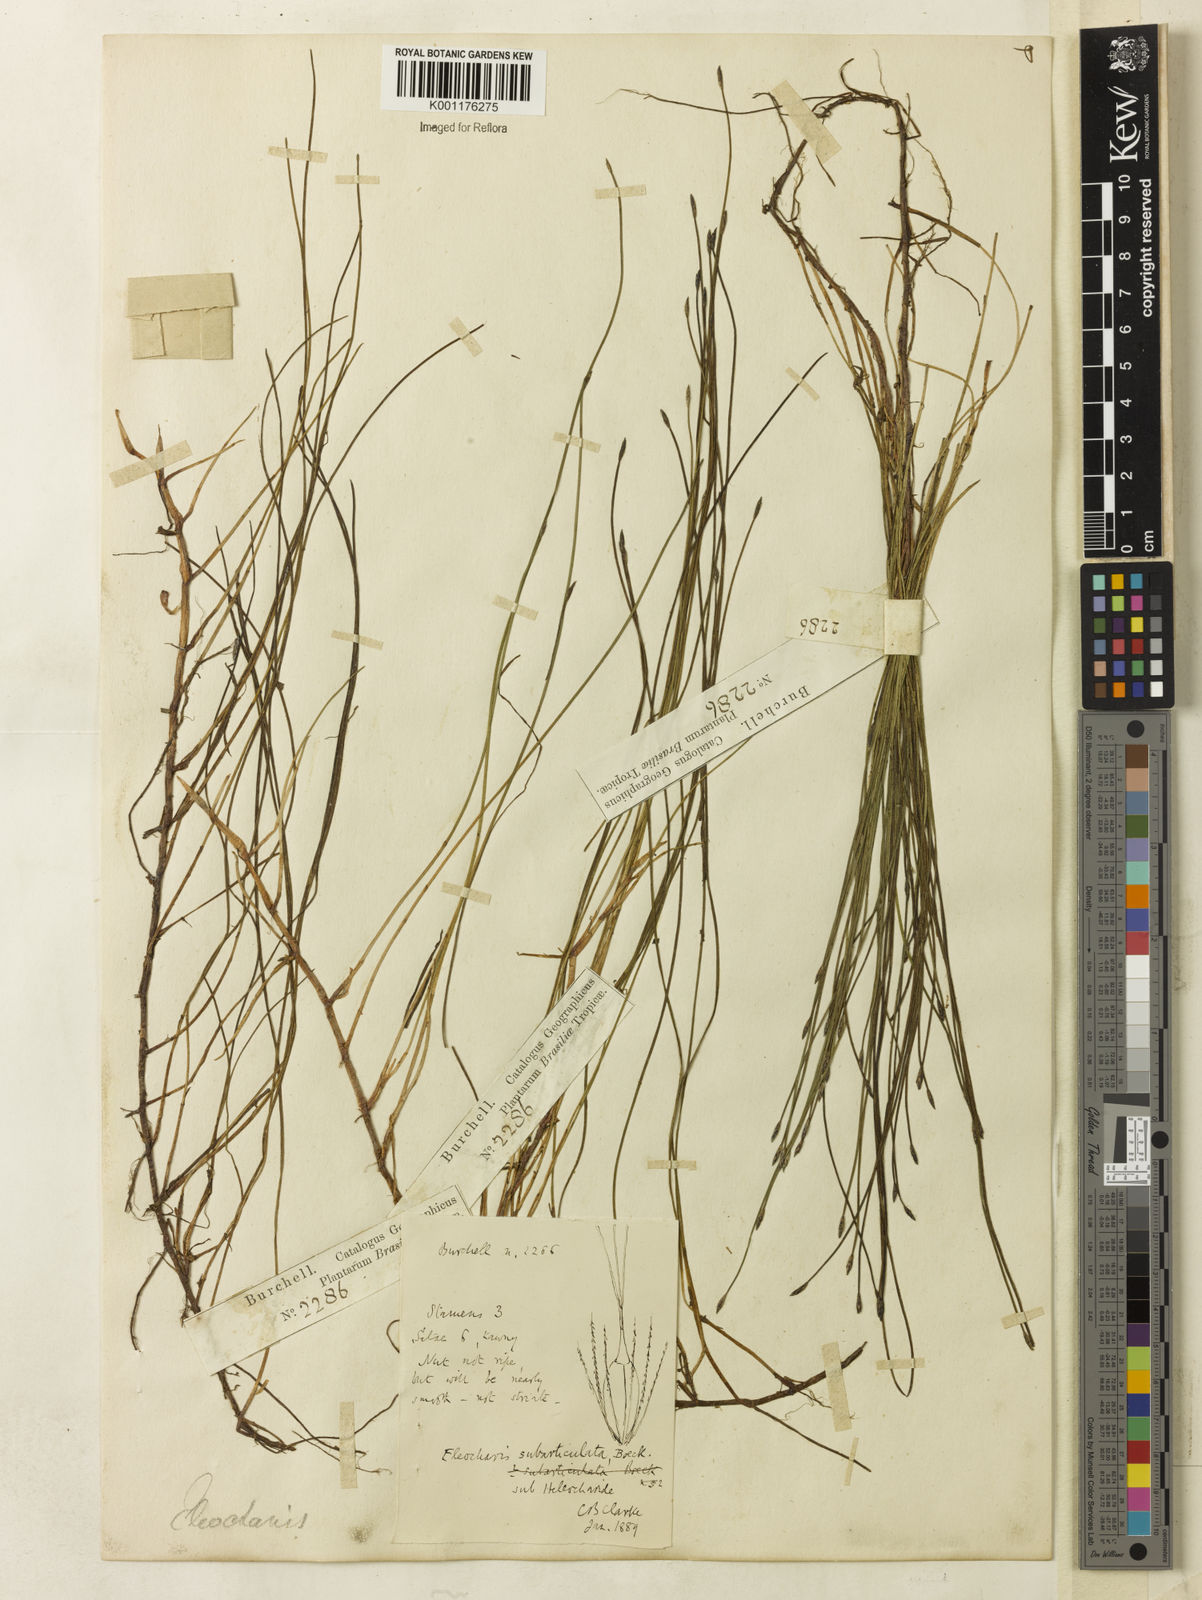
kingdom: Plantae
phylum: Tracheophyta
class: Liliopsida
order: Poales
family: Cyperaceae
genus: Eleocharis
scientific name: Eleocharis subarticulata
